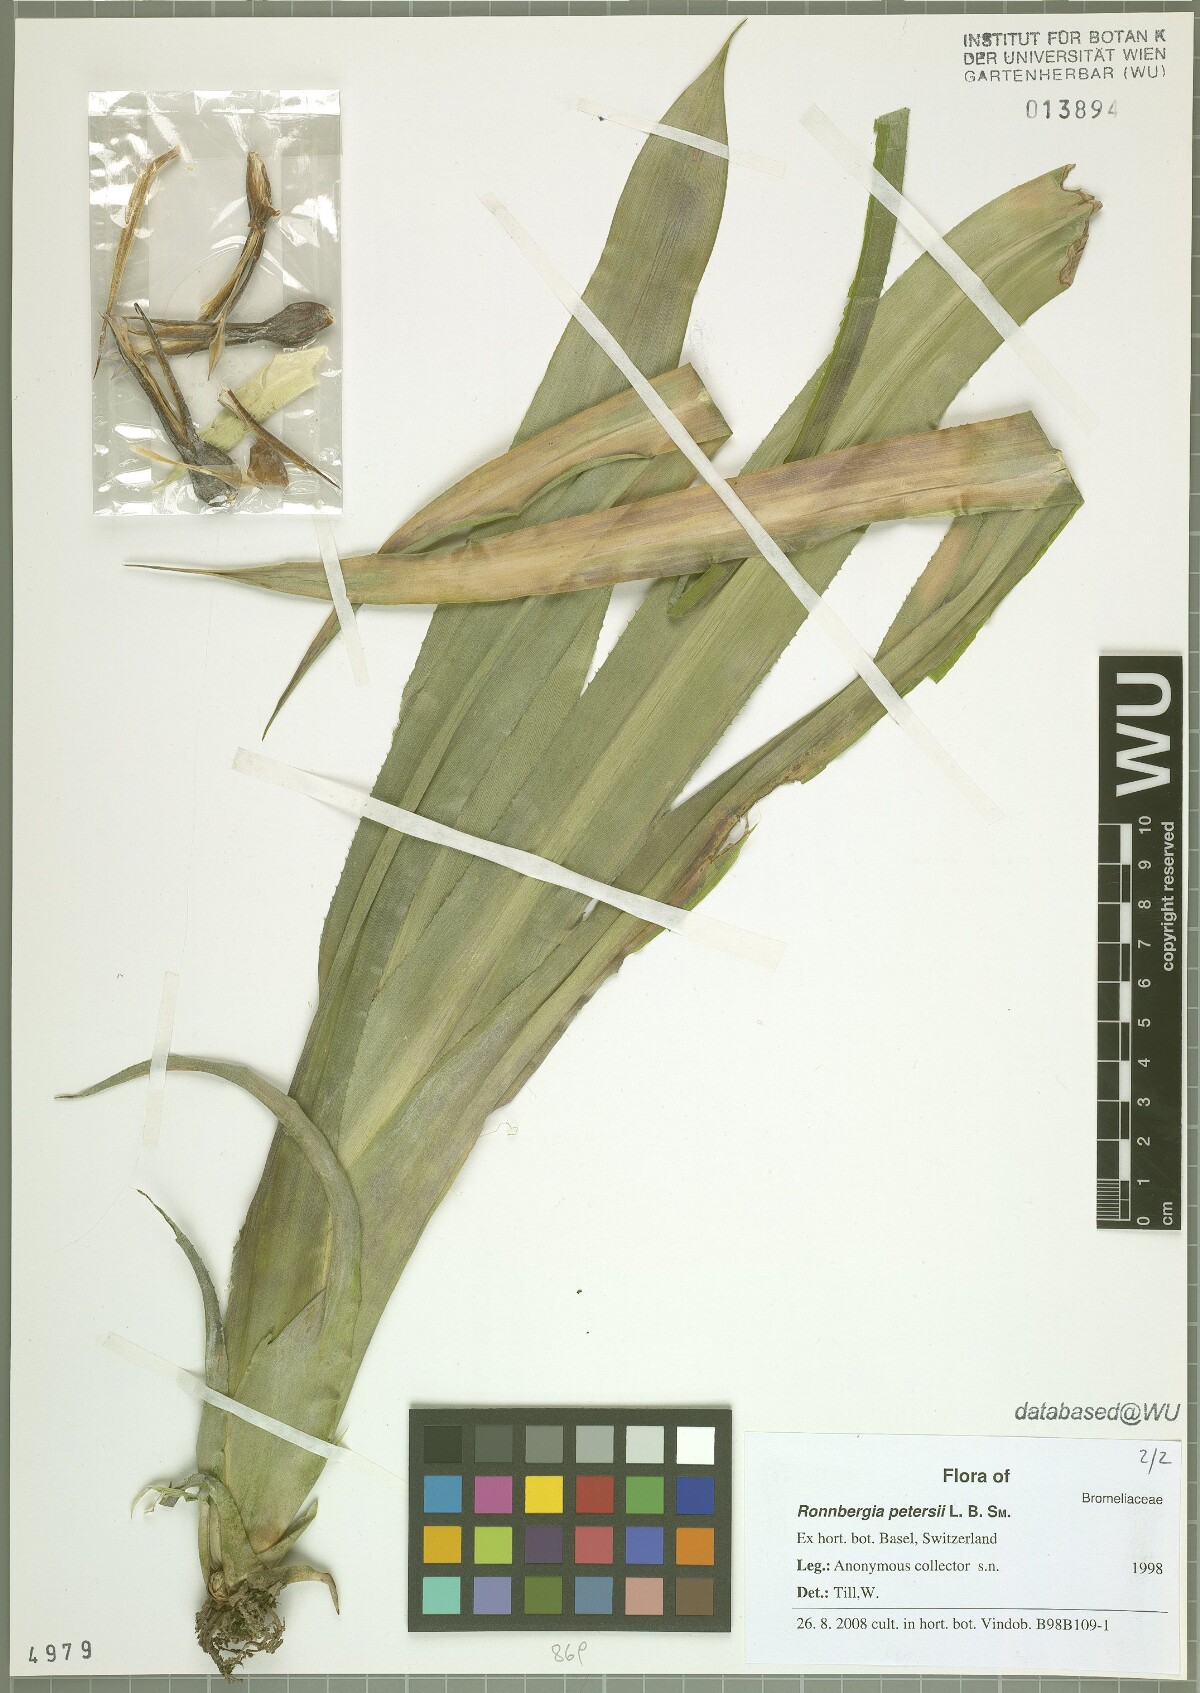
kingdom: Plantae
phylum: Tracheophyta
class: Liliopsida
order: Poales
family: Bromeliaceae
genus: Ronnbergia
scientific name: Ronnbergia allenii
